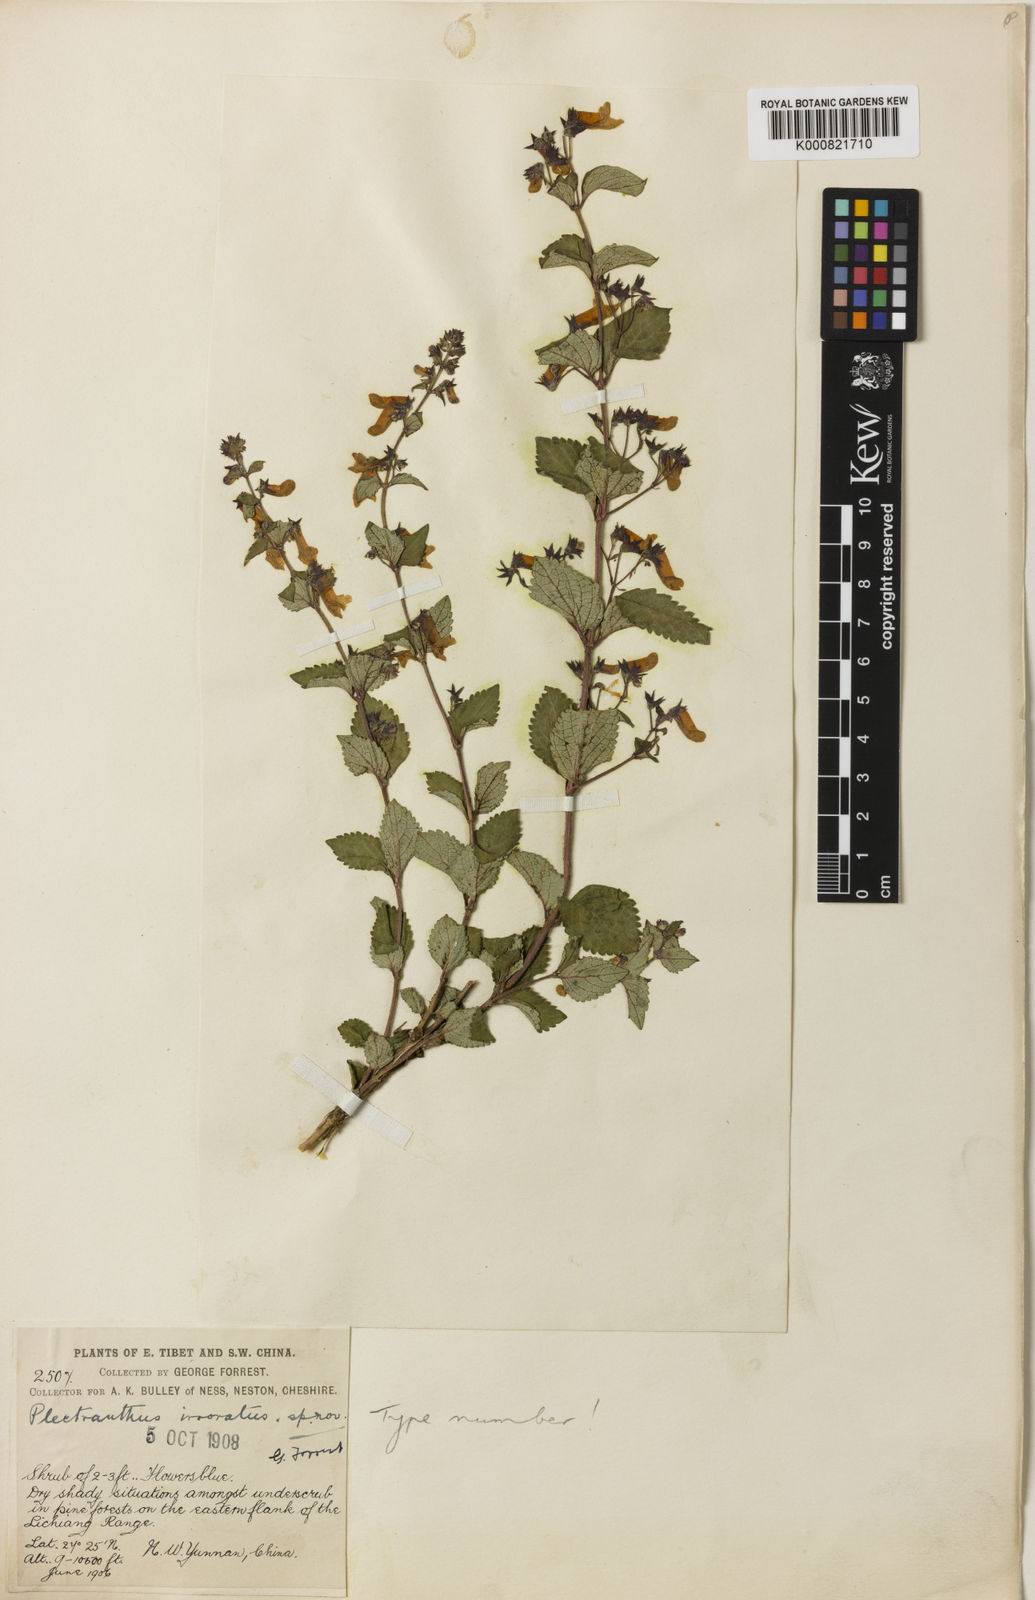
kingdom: Plantae
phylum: Tracheophyta
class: Magnoliopsida
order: Lamiales
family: Lamiaceae
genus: Isodon
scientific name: Isodon
